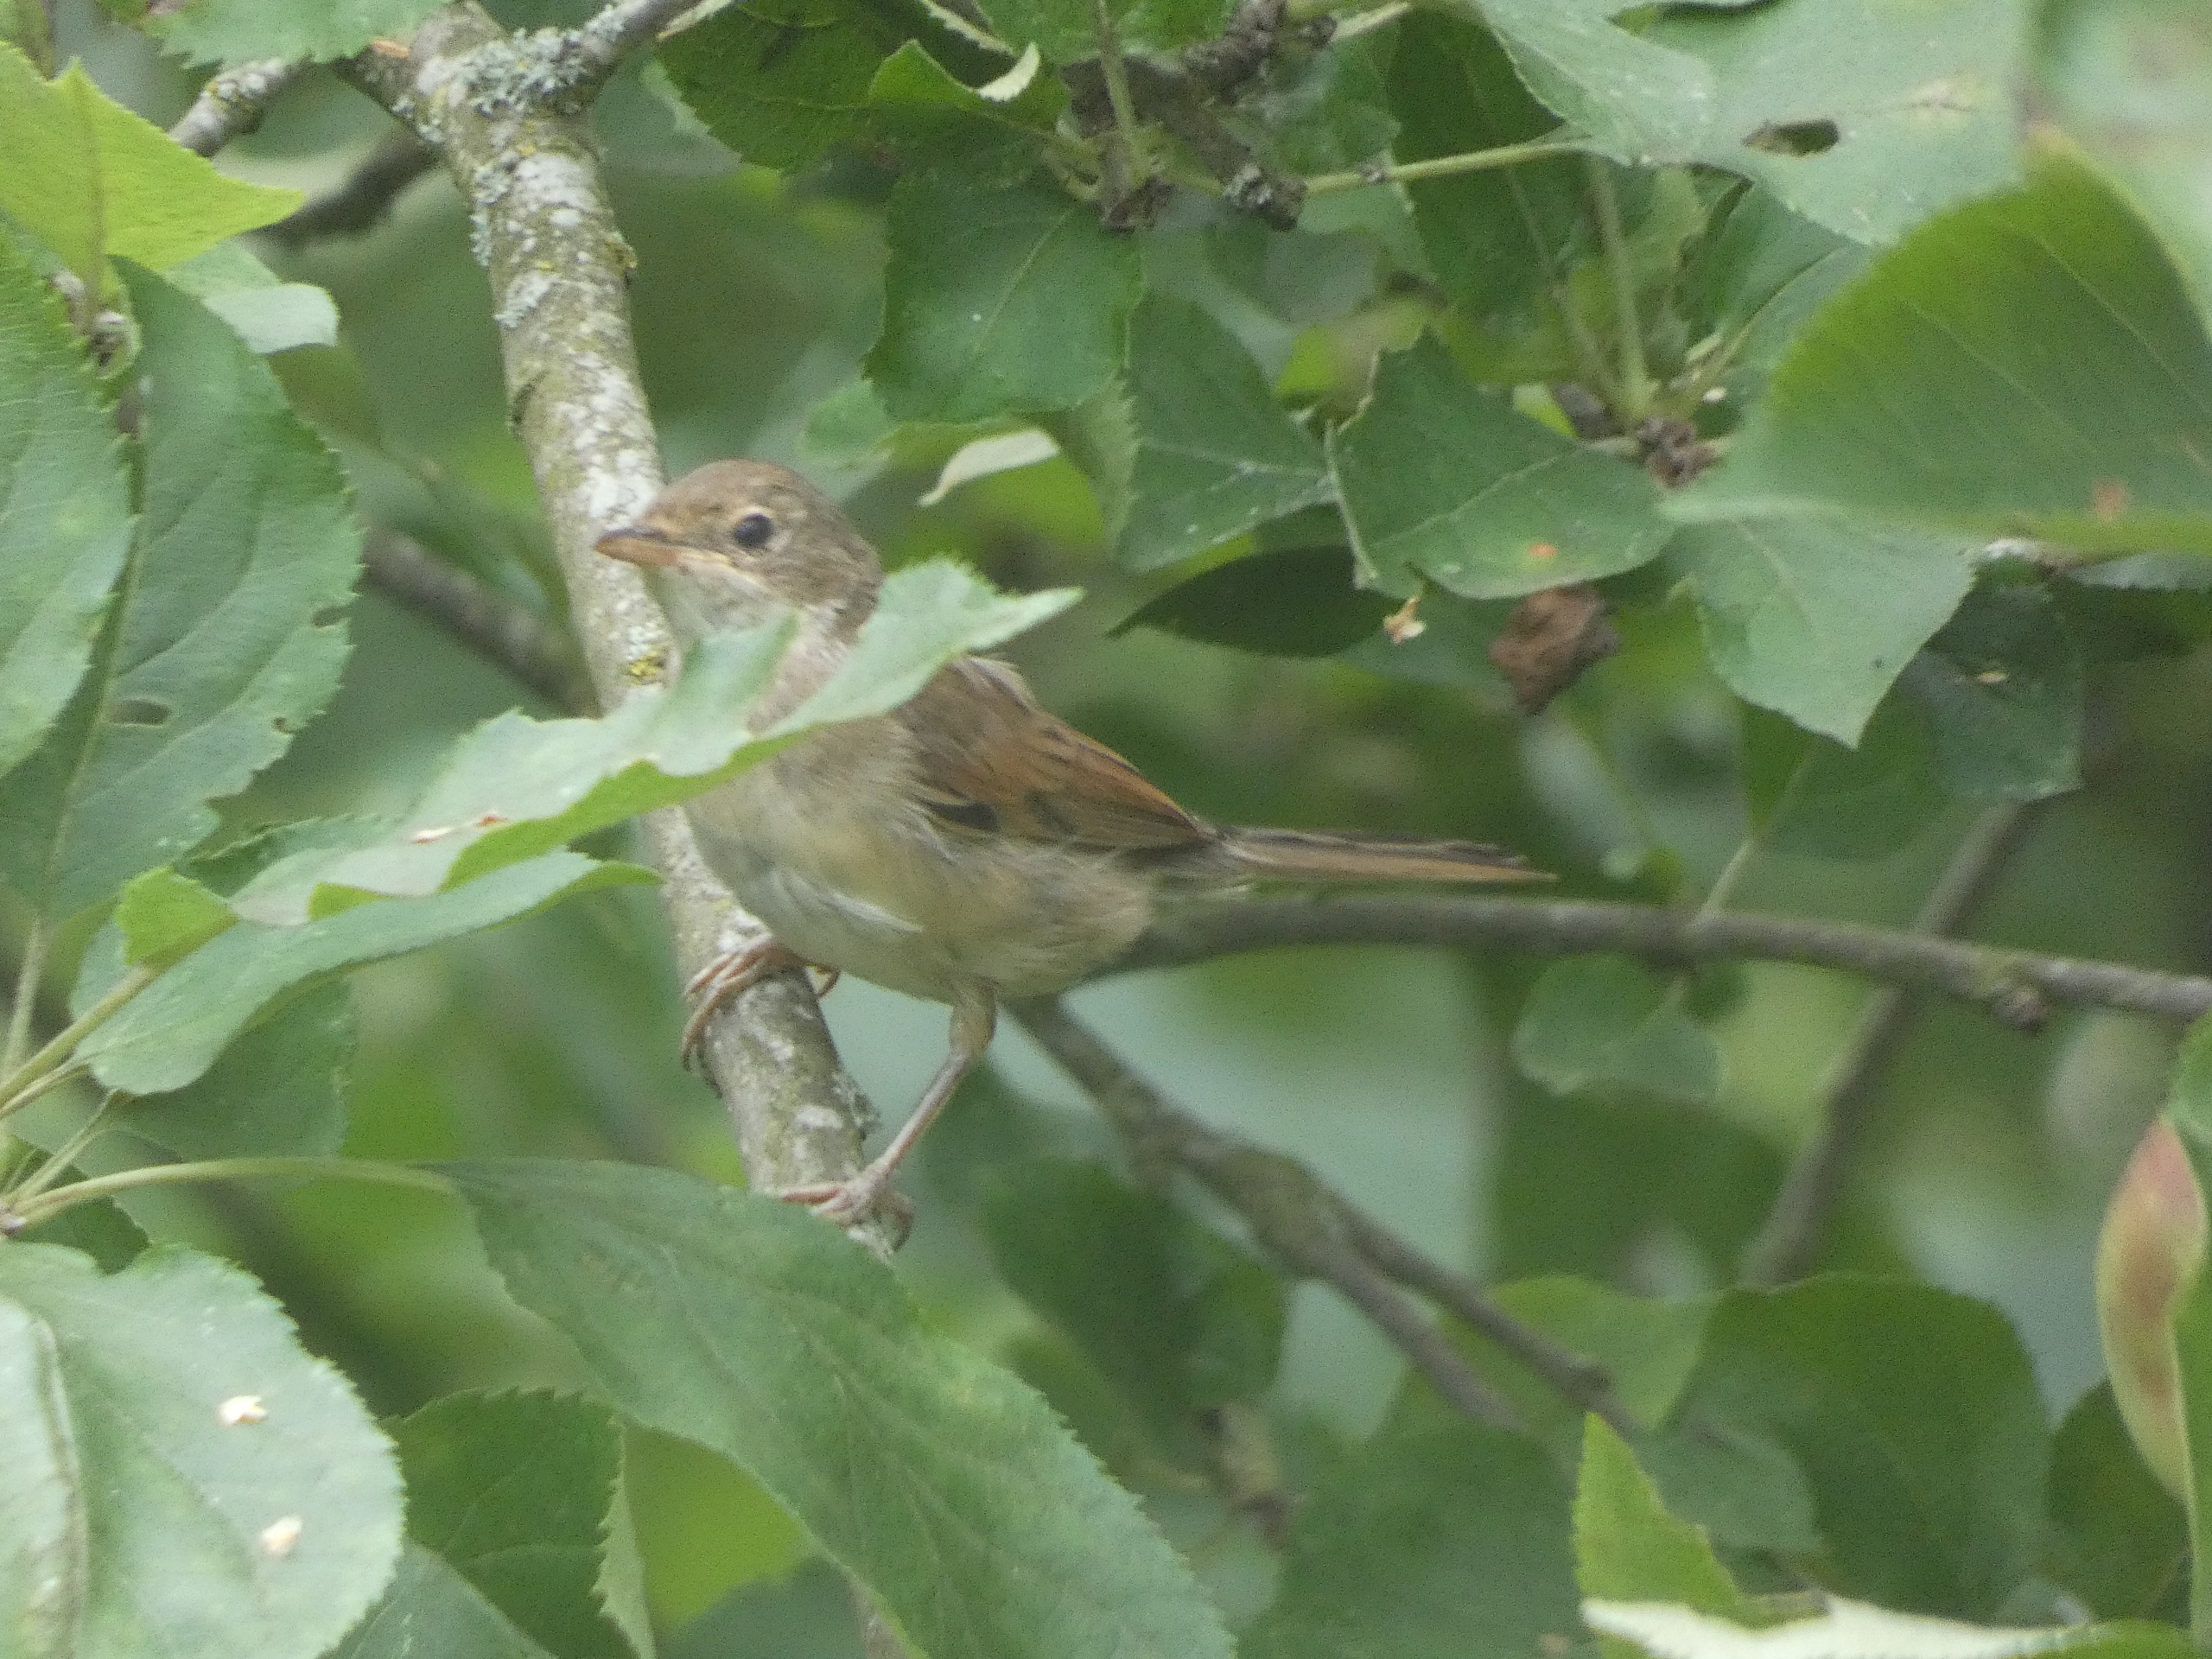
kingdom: Animalia
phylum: Chordata
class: Aves
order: Passeriformes
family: Sylviidae
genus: Sylvia
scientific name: Sylvia communis
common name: Tornsanger
